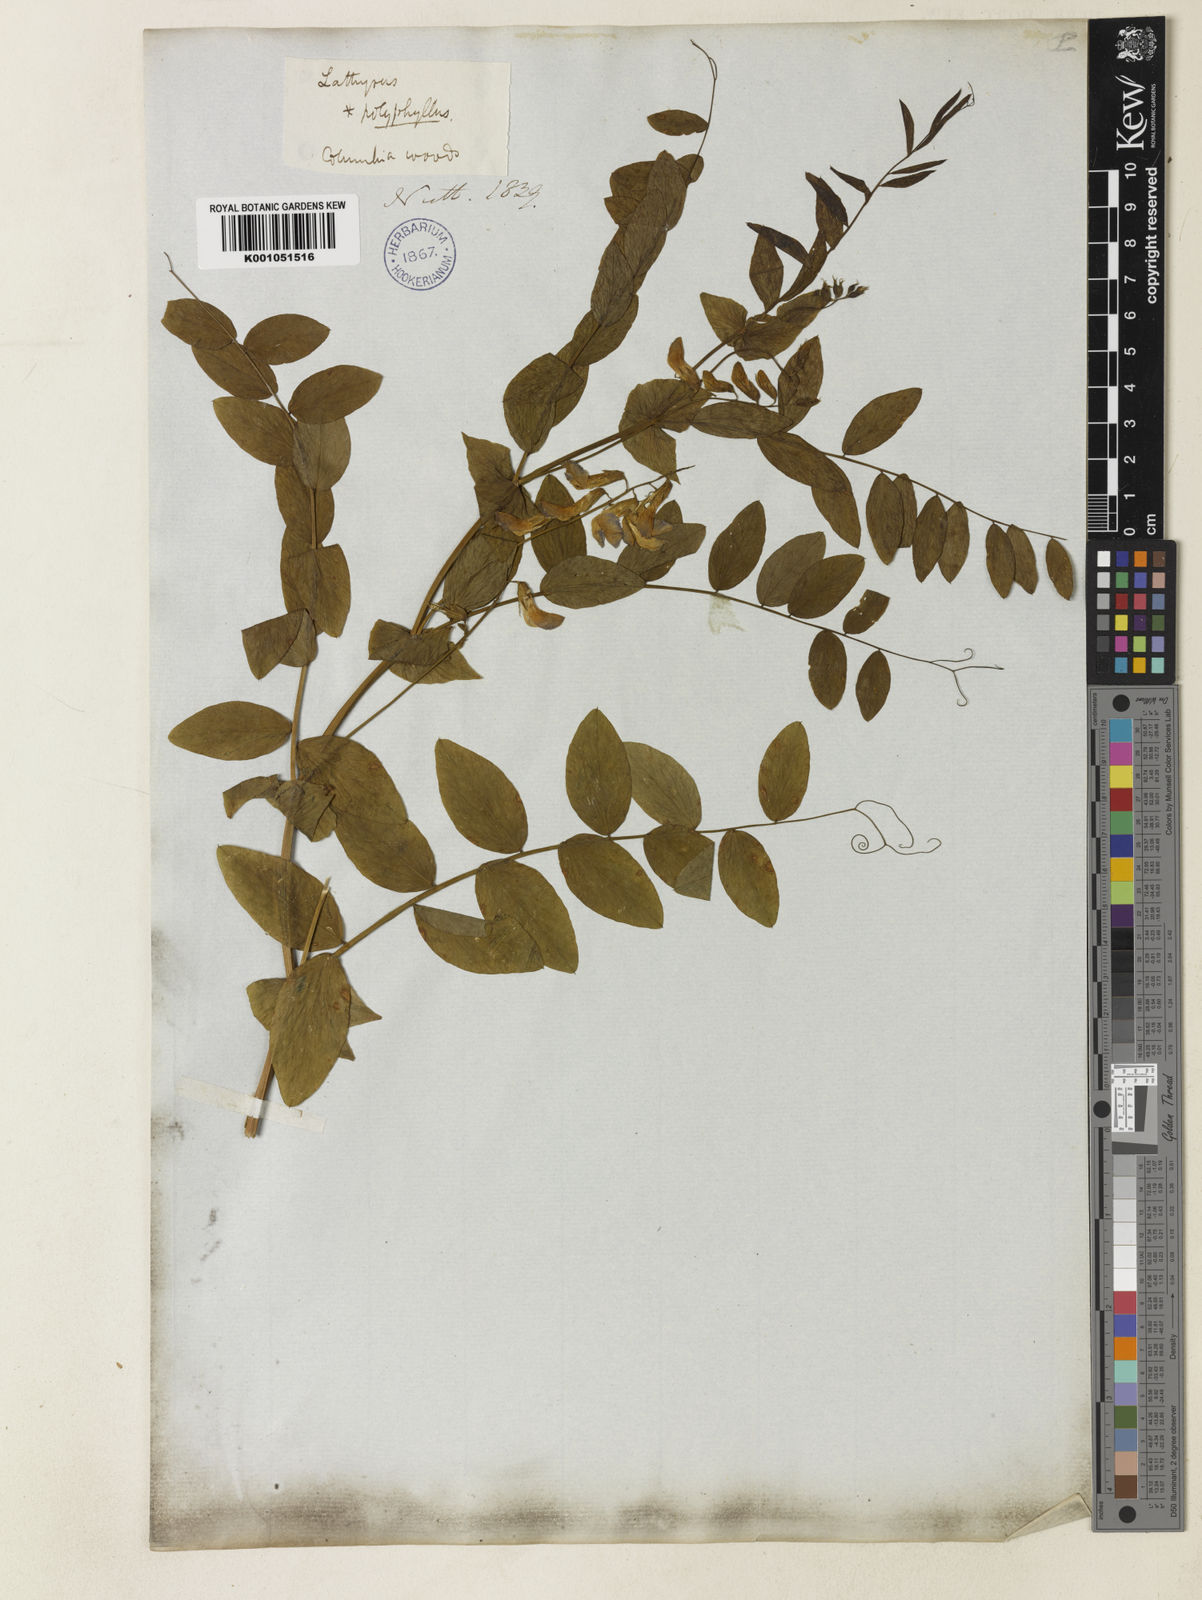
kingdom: Plantae
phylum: Tracheophyta
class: Magnoliopsida
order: Fabales
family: Fabaceae
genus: Lathyrus
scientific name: Lathyrus polyphyllus
